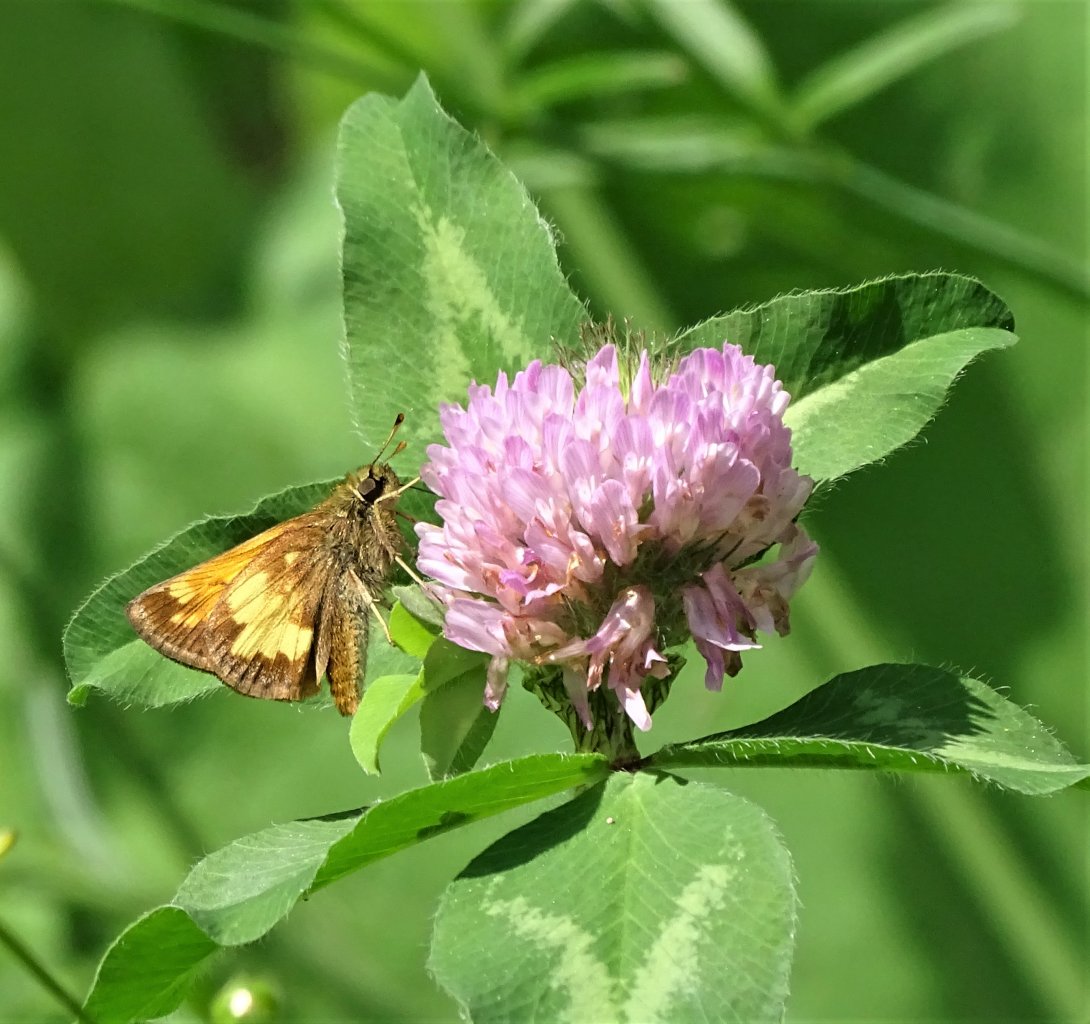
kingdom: Animalia
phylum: Arthropoda
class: Insecta
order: Lepidoptera
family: Hesperiidae
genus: Lon
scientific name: Lon hobomok
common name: Hobomok Skipper
